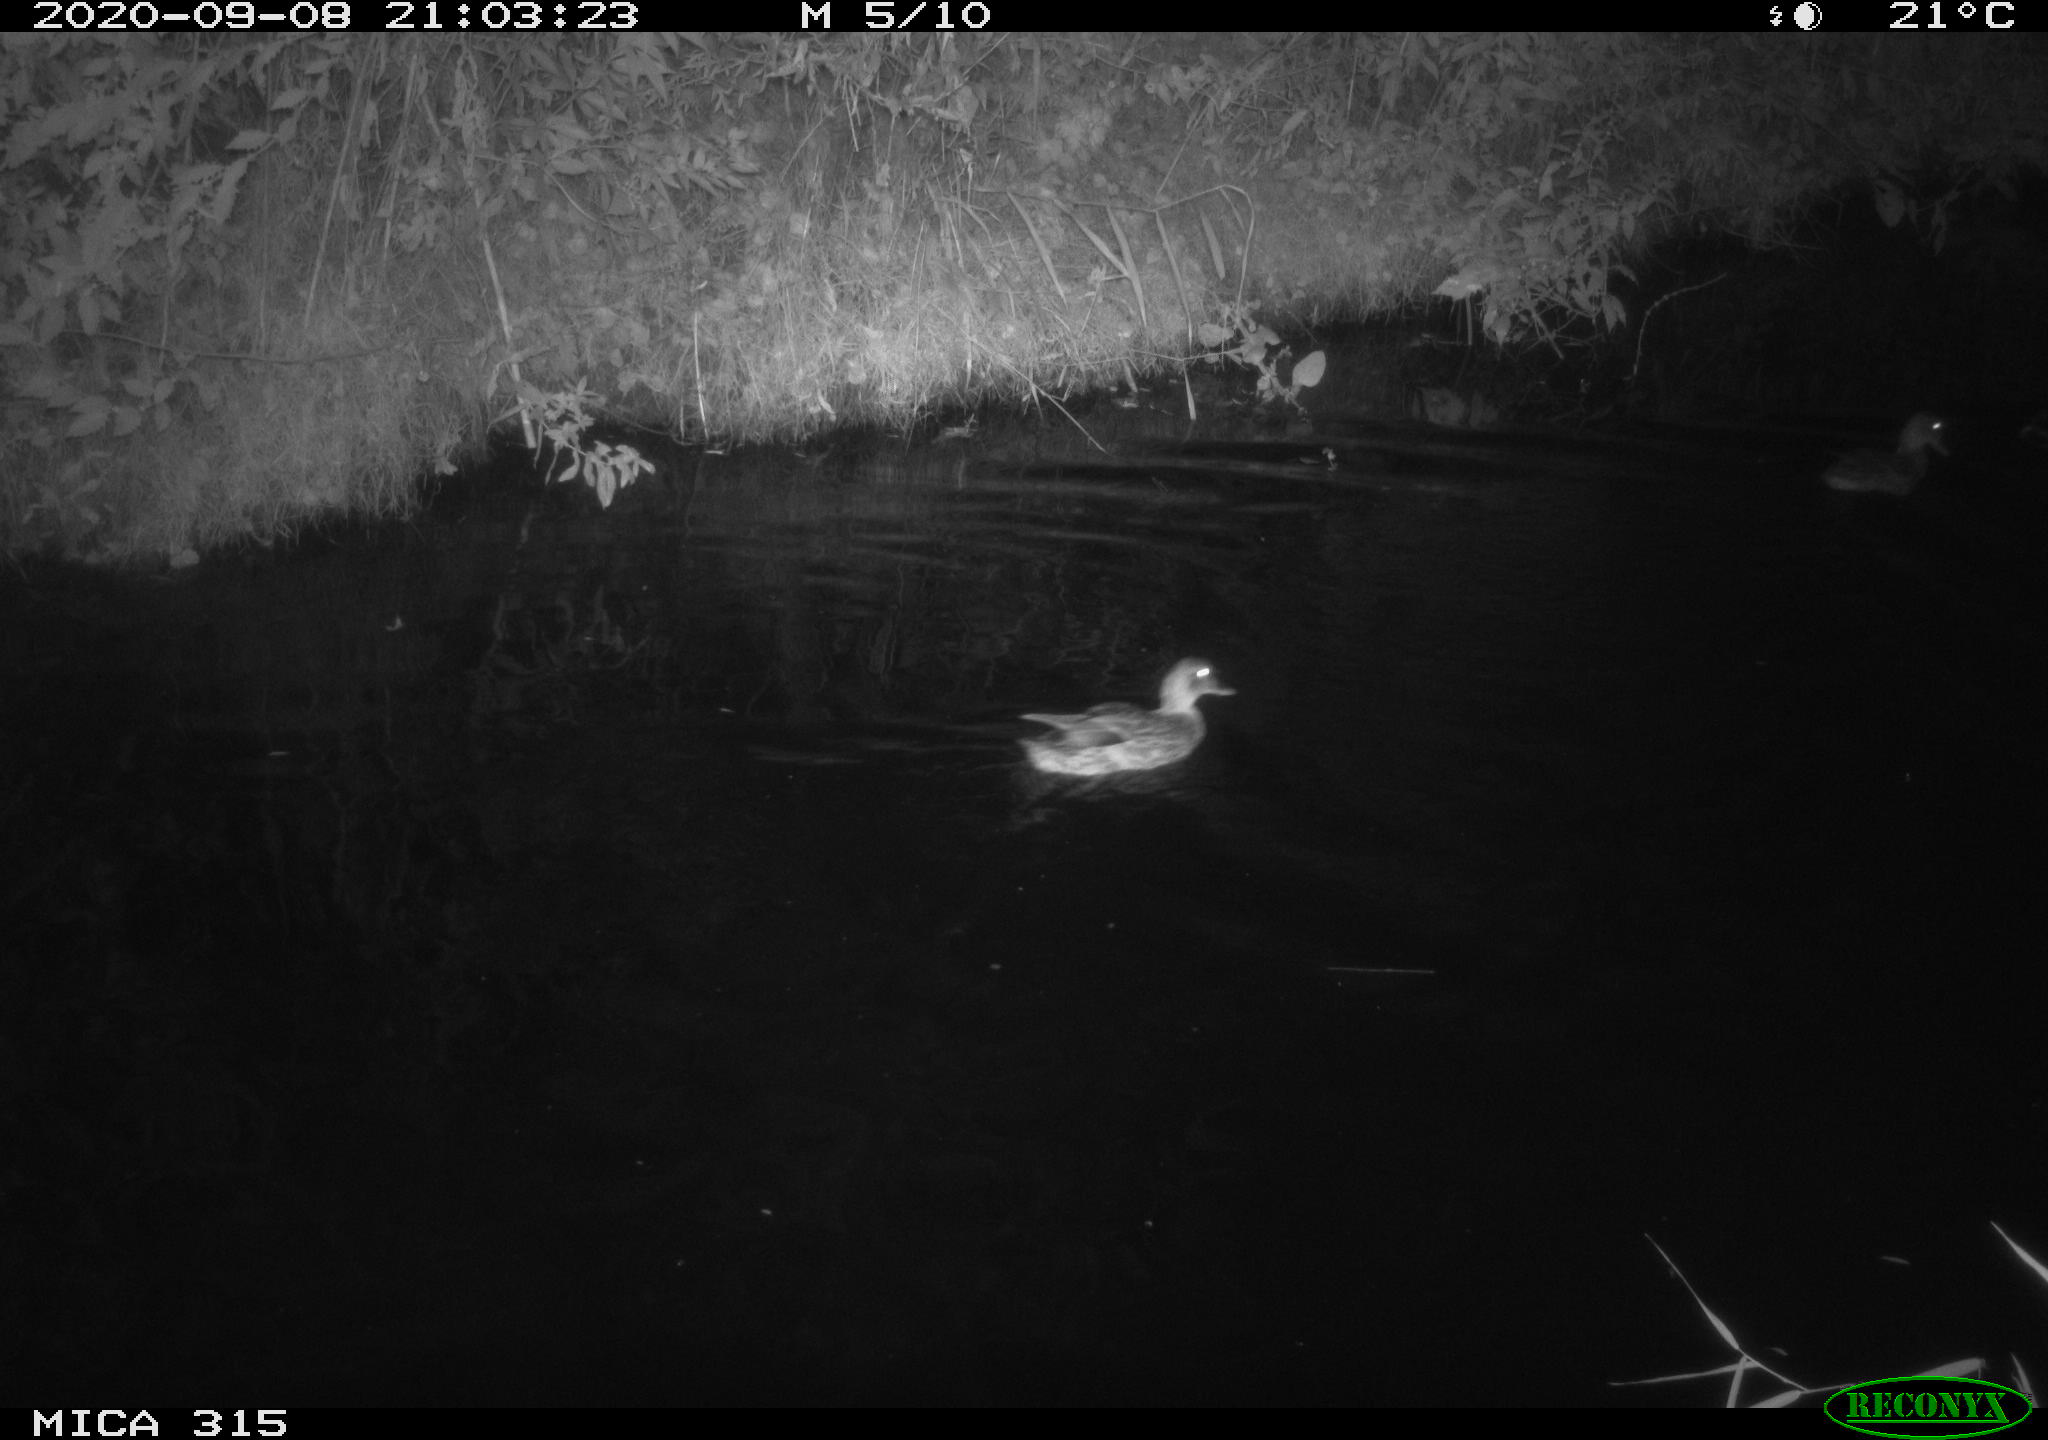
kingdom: Animalia
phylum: Chordata
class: Aves
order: Anseriformes
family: Anatidae
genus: Anas
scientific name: Anas platyrhynchos
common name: Mallard
